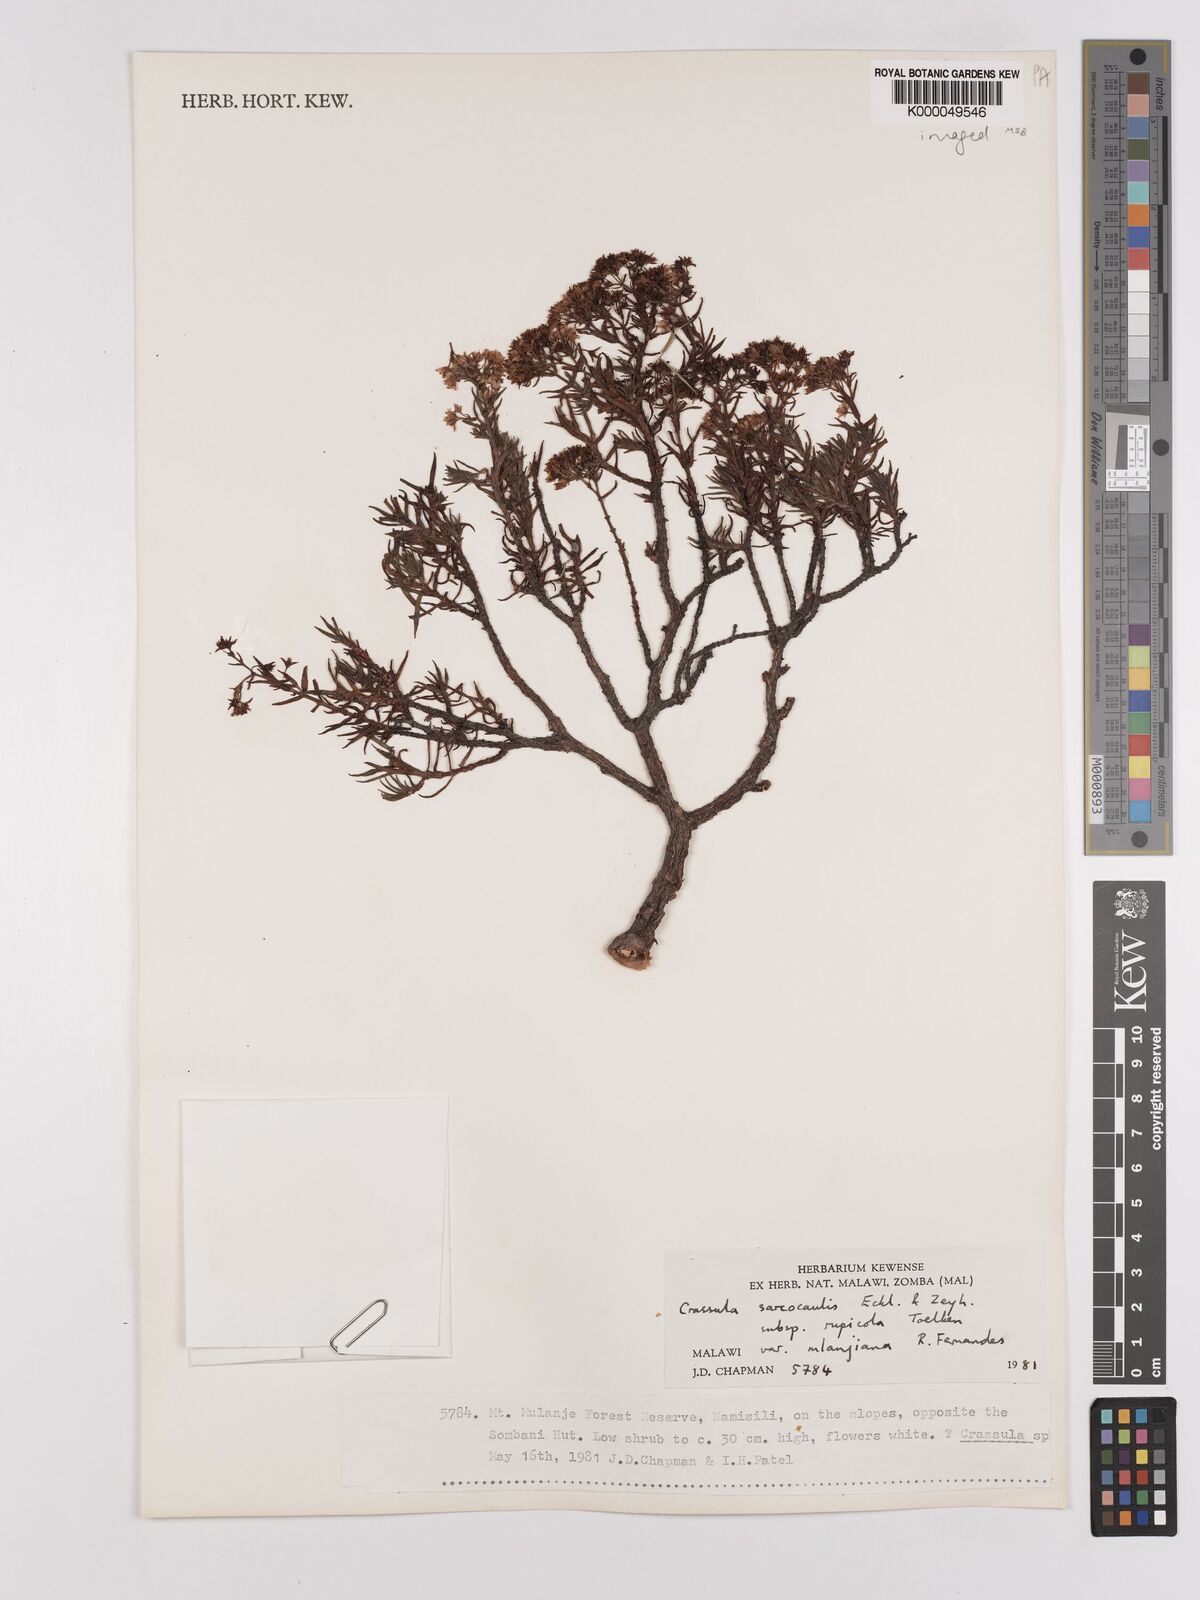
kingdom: Plantae
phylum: Tracheophyta
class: Magnoliopsida
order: Saxifragales
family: Crassulaceae
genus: Crassula
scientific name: Crassula sarcocaulis
